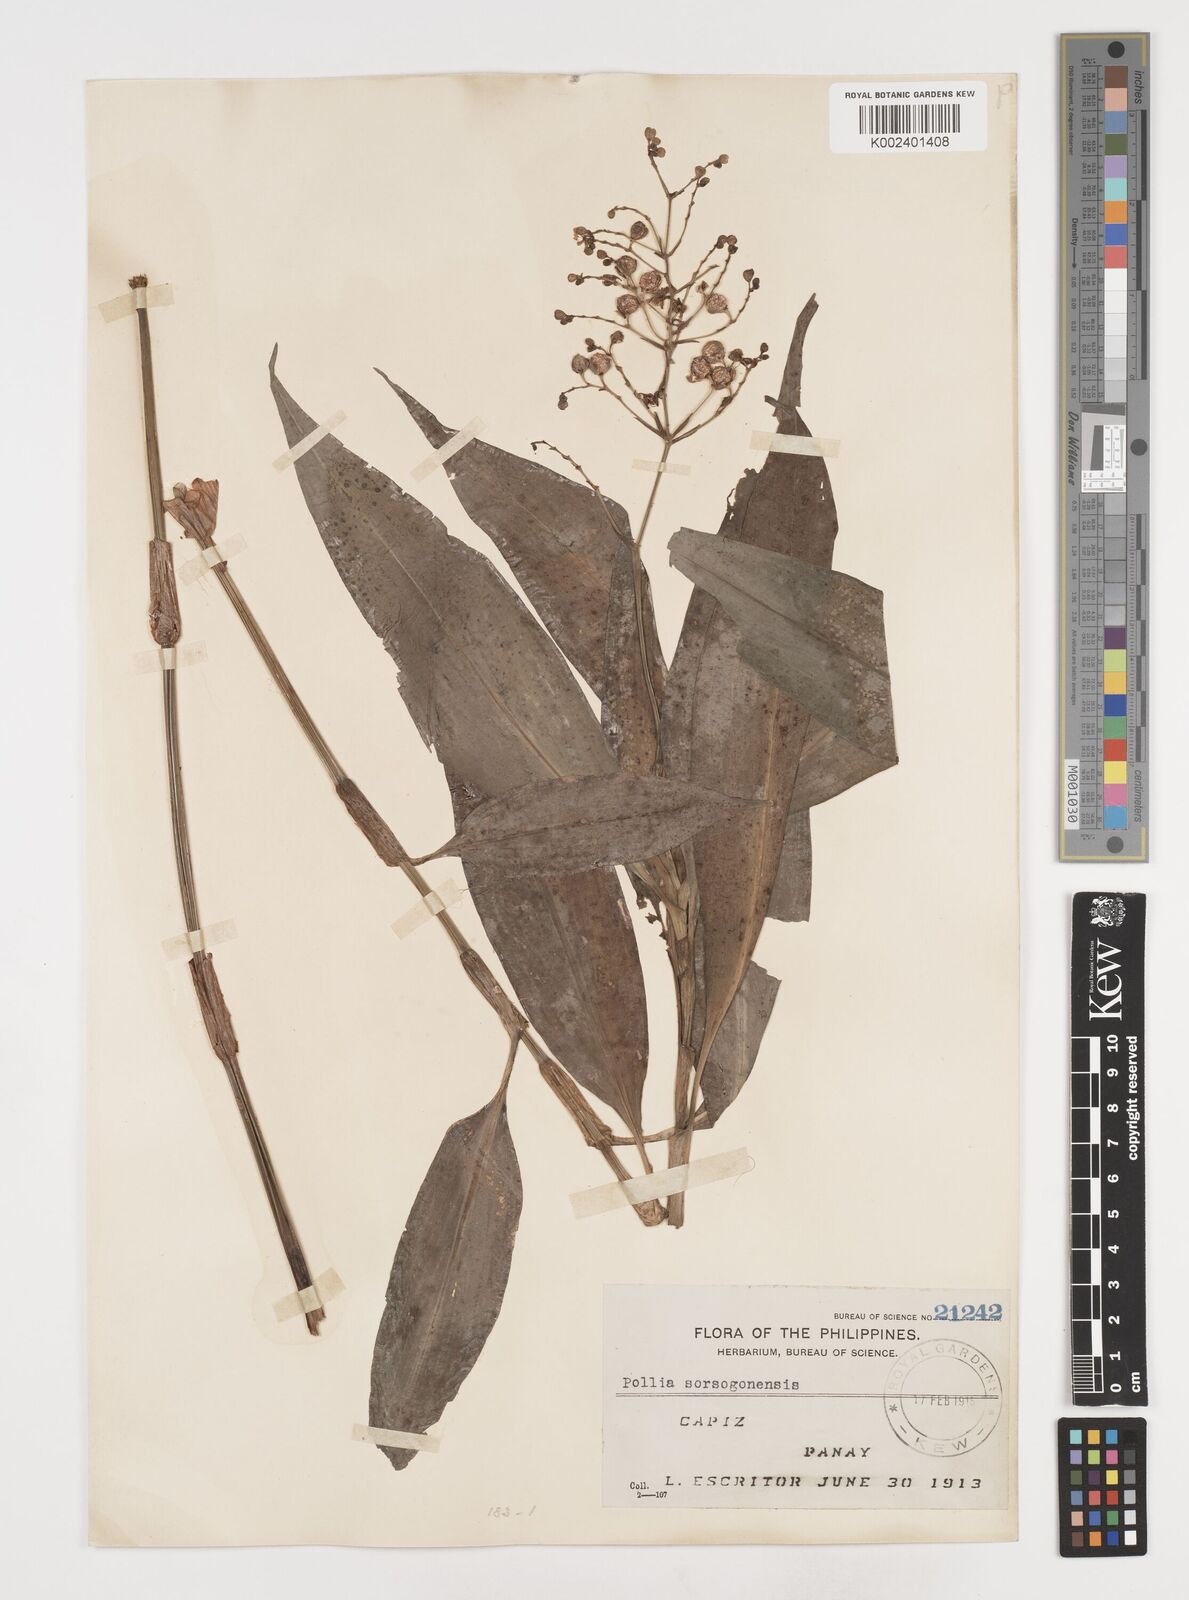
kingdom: Plantae
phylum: Tracheophyta
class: Liliopsida
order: Commelinales
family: Commelinaceae
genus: Pollia
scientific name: Pollia secundiflora
